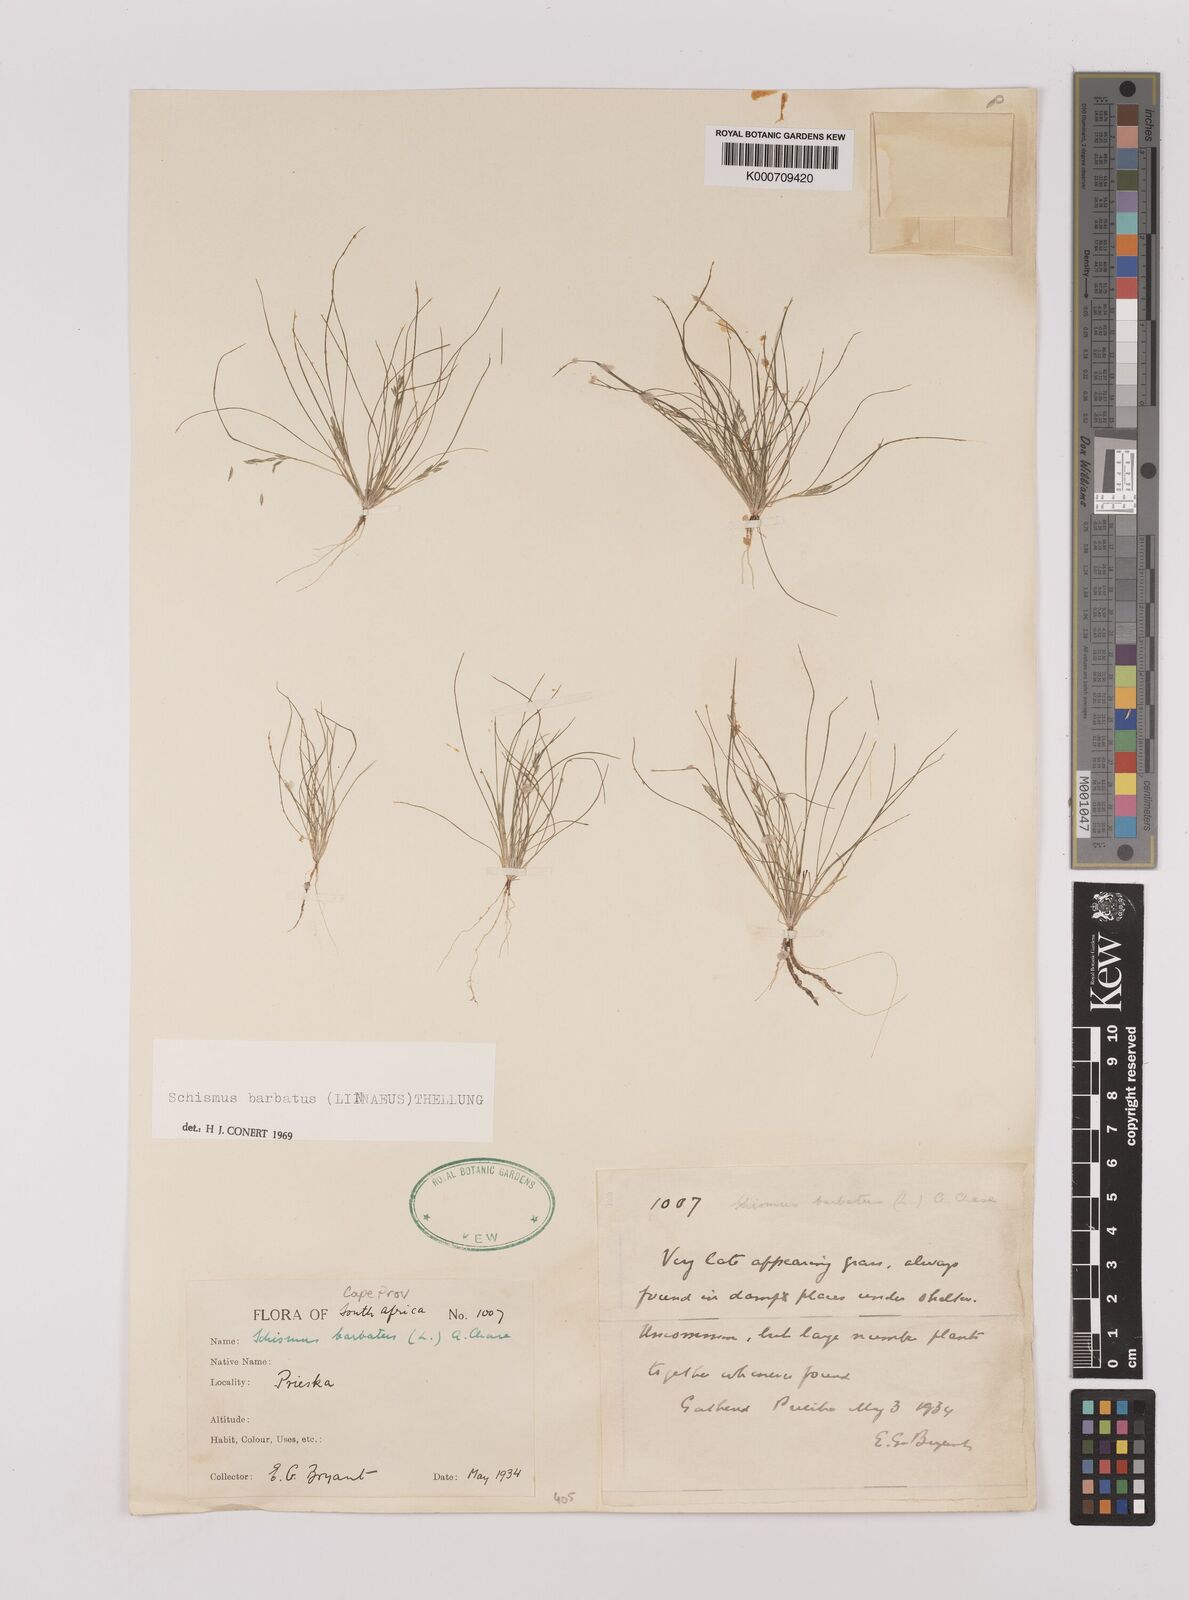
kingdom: Plantae
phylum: Tracheophyta
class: Liliopsida
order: Poales
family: Poaceae
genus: Schismus
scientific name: Schismus barbatus
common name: Kelch-grass
